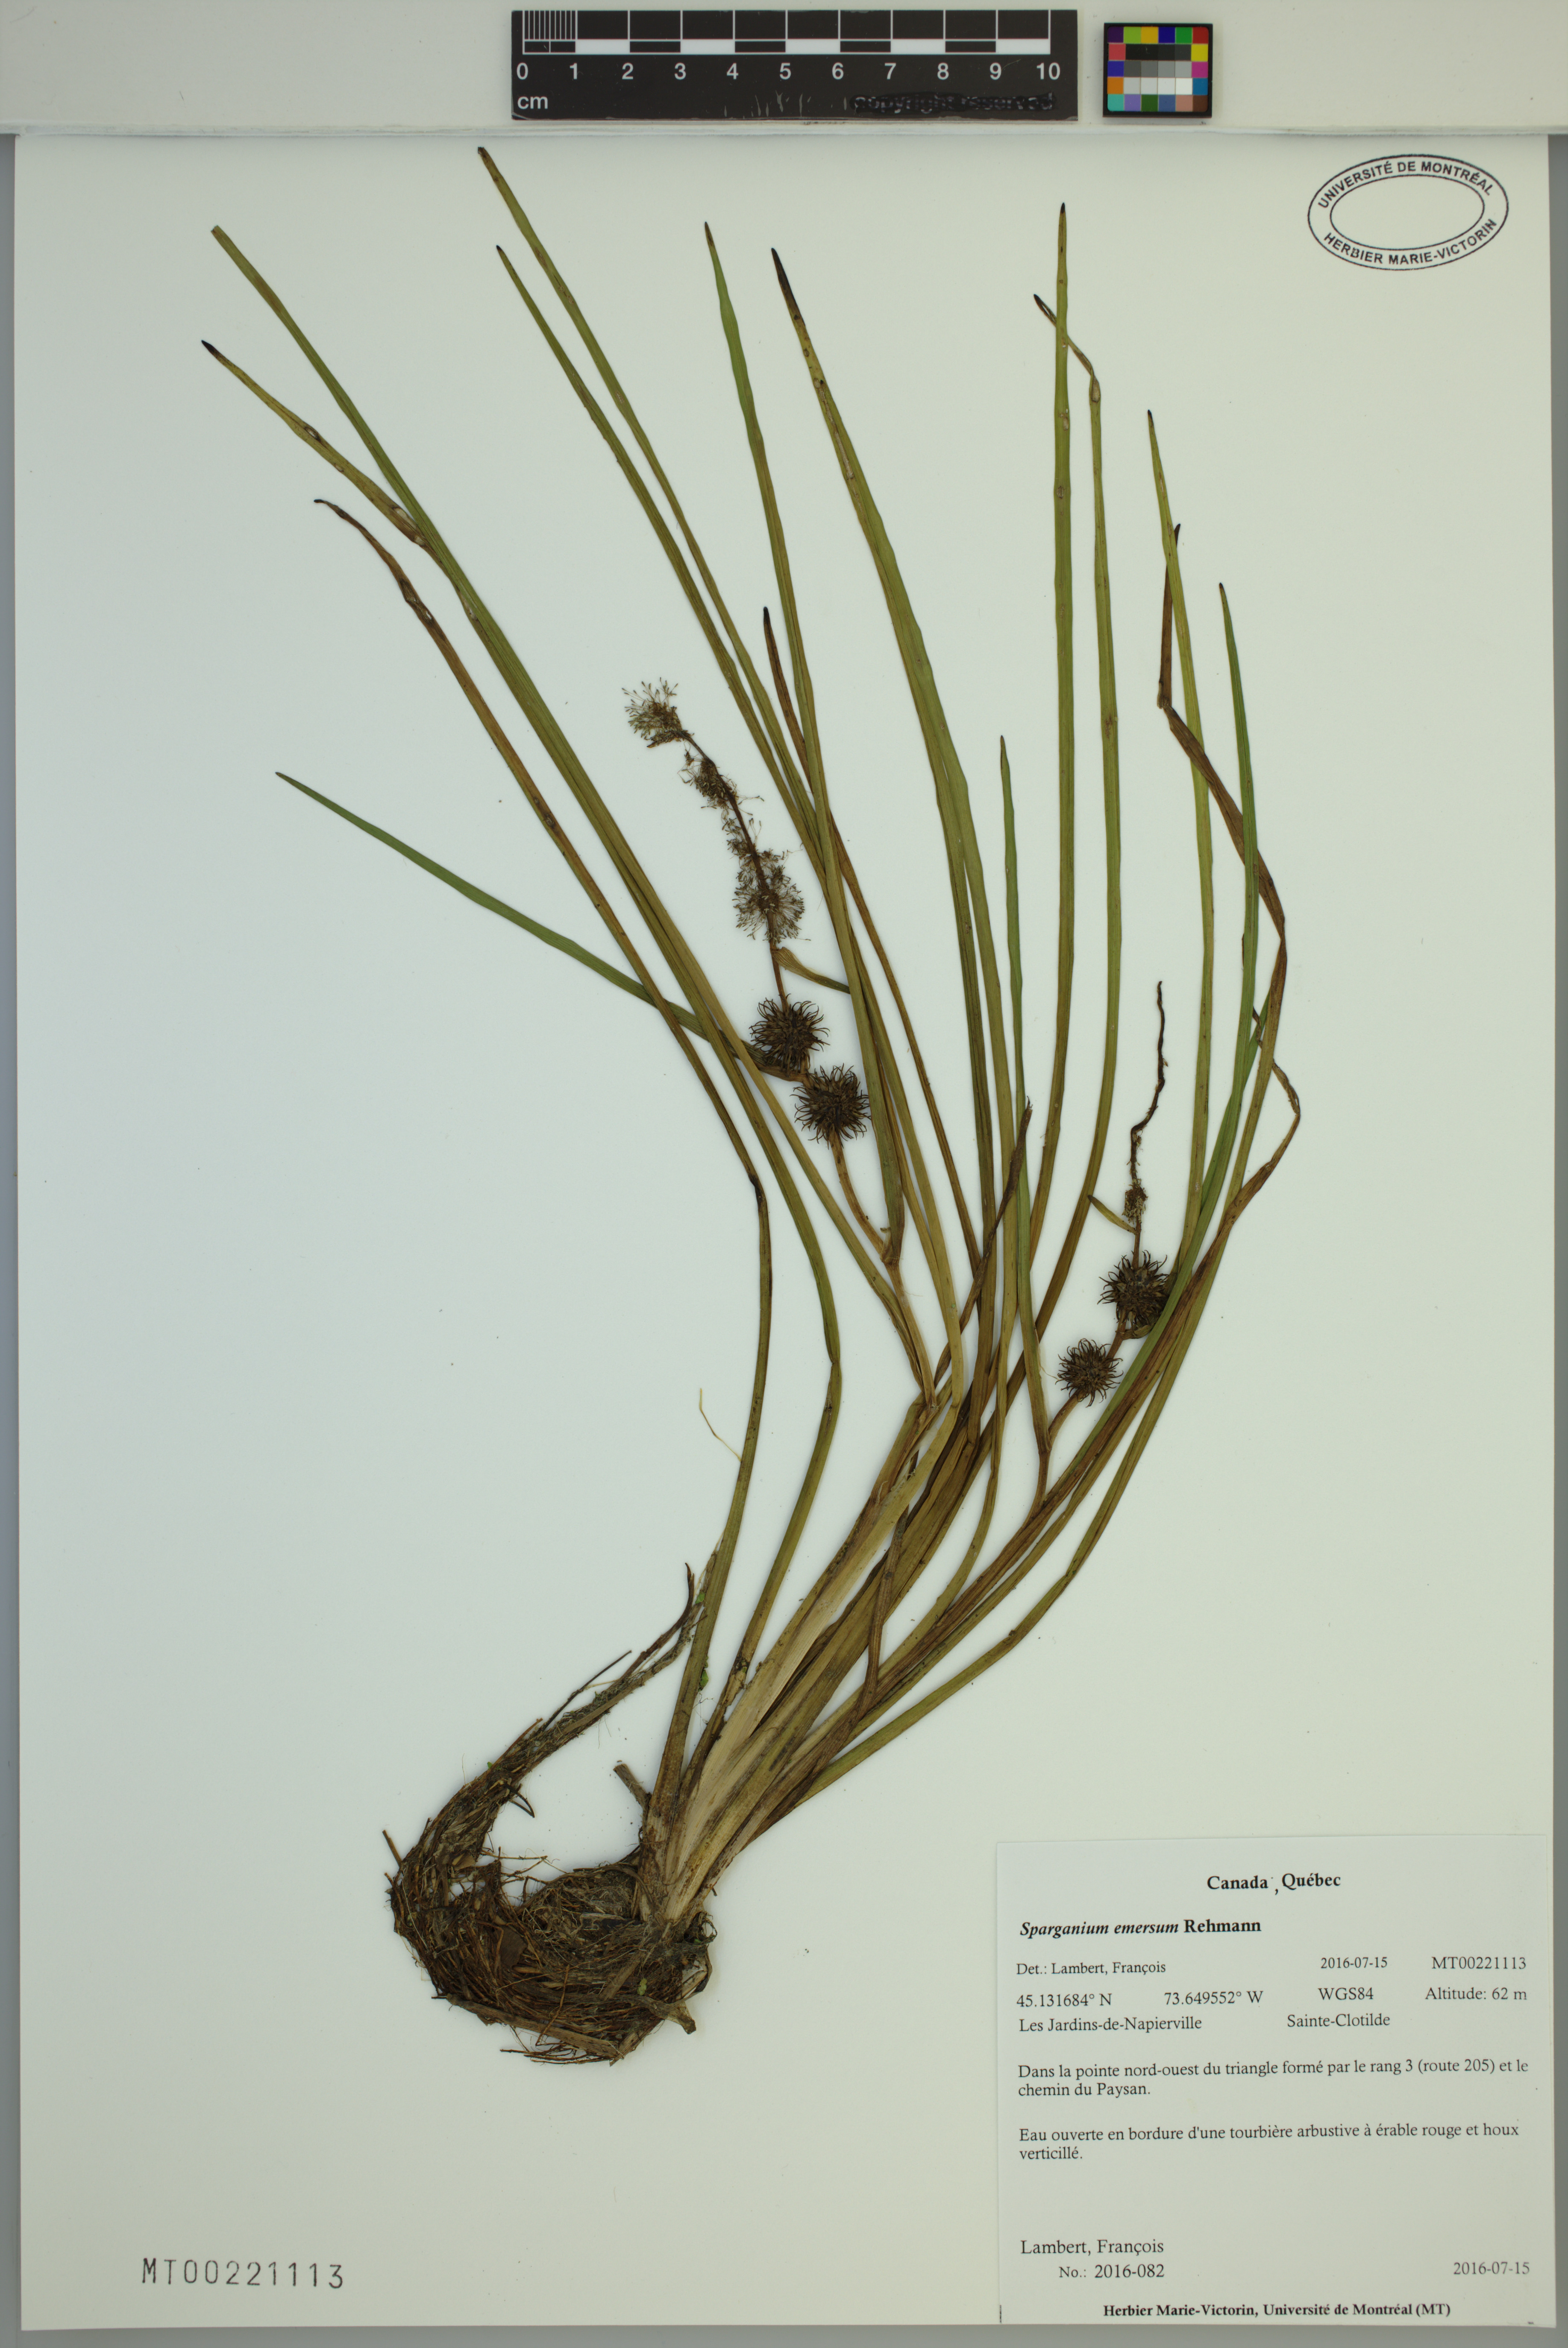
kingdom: Plantae
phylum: Tracheophyta
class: Liliopsida
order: Poales
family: Typhaceae
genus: Sparganium
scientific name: Sparganium emersum
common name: Unbranched bur-reed
